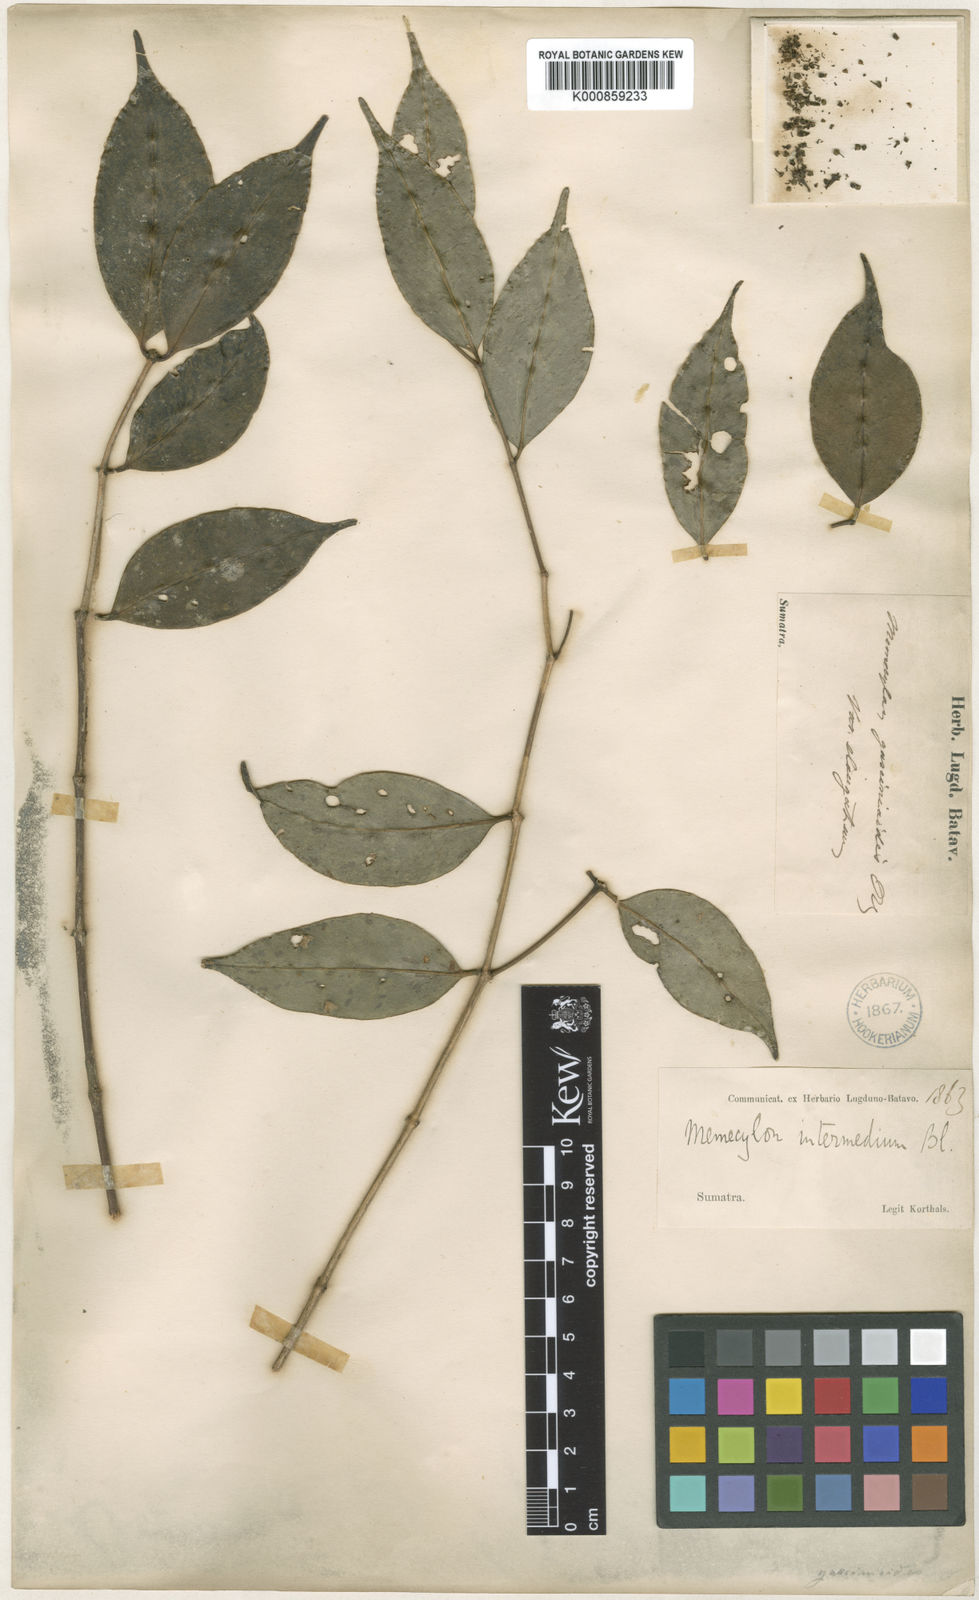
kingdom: Plantae
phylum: Tracheophyta
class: Magnoliopsida
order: Myrtales
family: Melastomataceae
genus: Memecylon
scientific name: Memecylon intermedium
